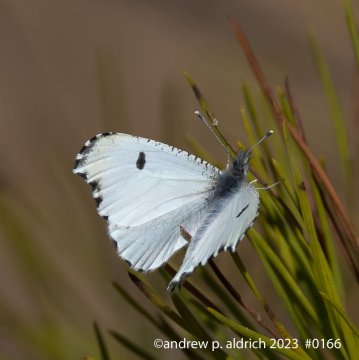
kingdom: Animalia
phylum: Arthropoda
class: Insecta
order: Lepidoptera
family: Pieridae
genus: Anthocharis
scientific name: Anthocharis midea
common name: Falcate Orangetip
